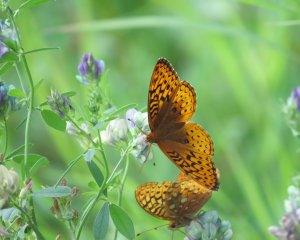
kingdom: Animalia
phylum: Arthropoda
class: Insecta
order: Lepidoptera
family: Nymphalidae
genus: Speyeria
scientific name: Speyeria atlantis
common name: Northwestern Fritillary
